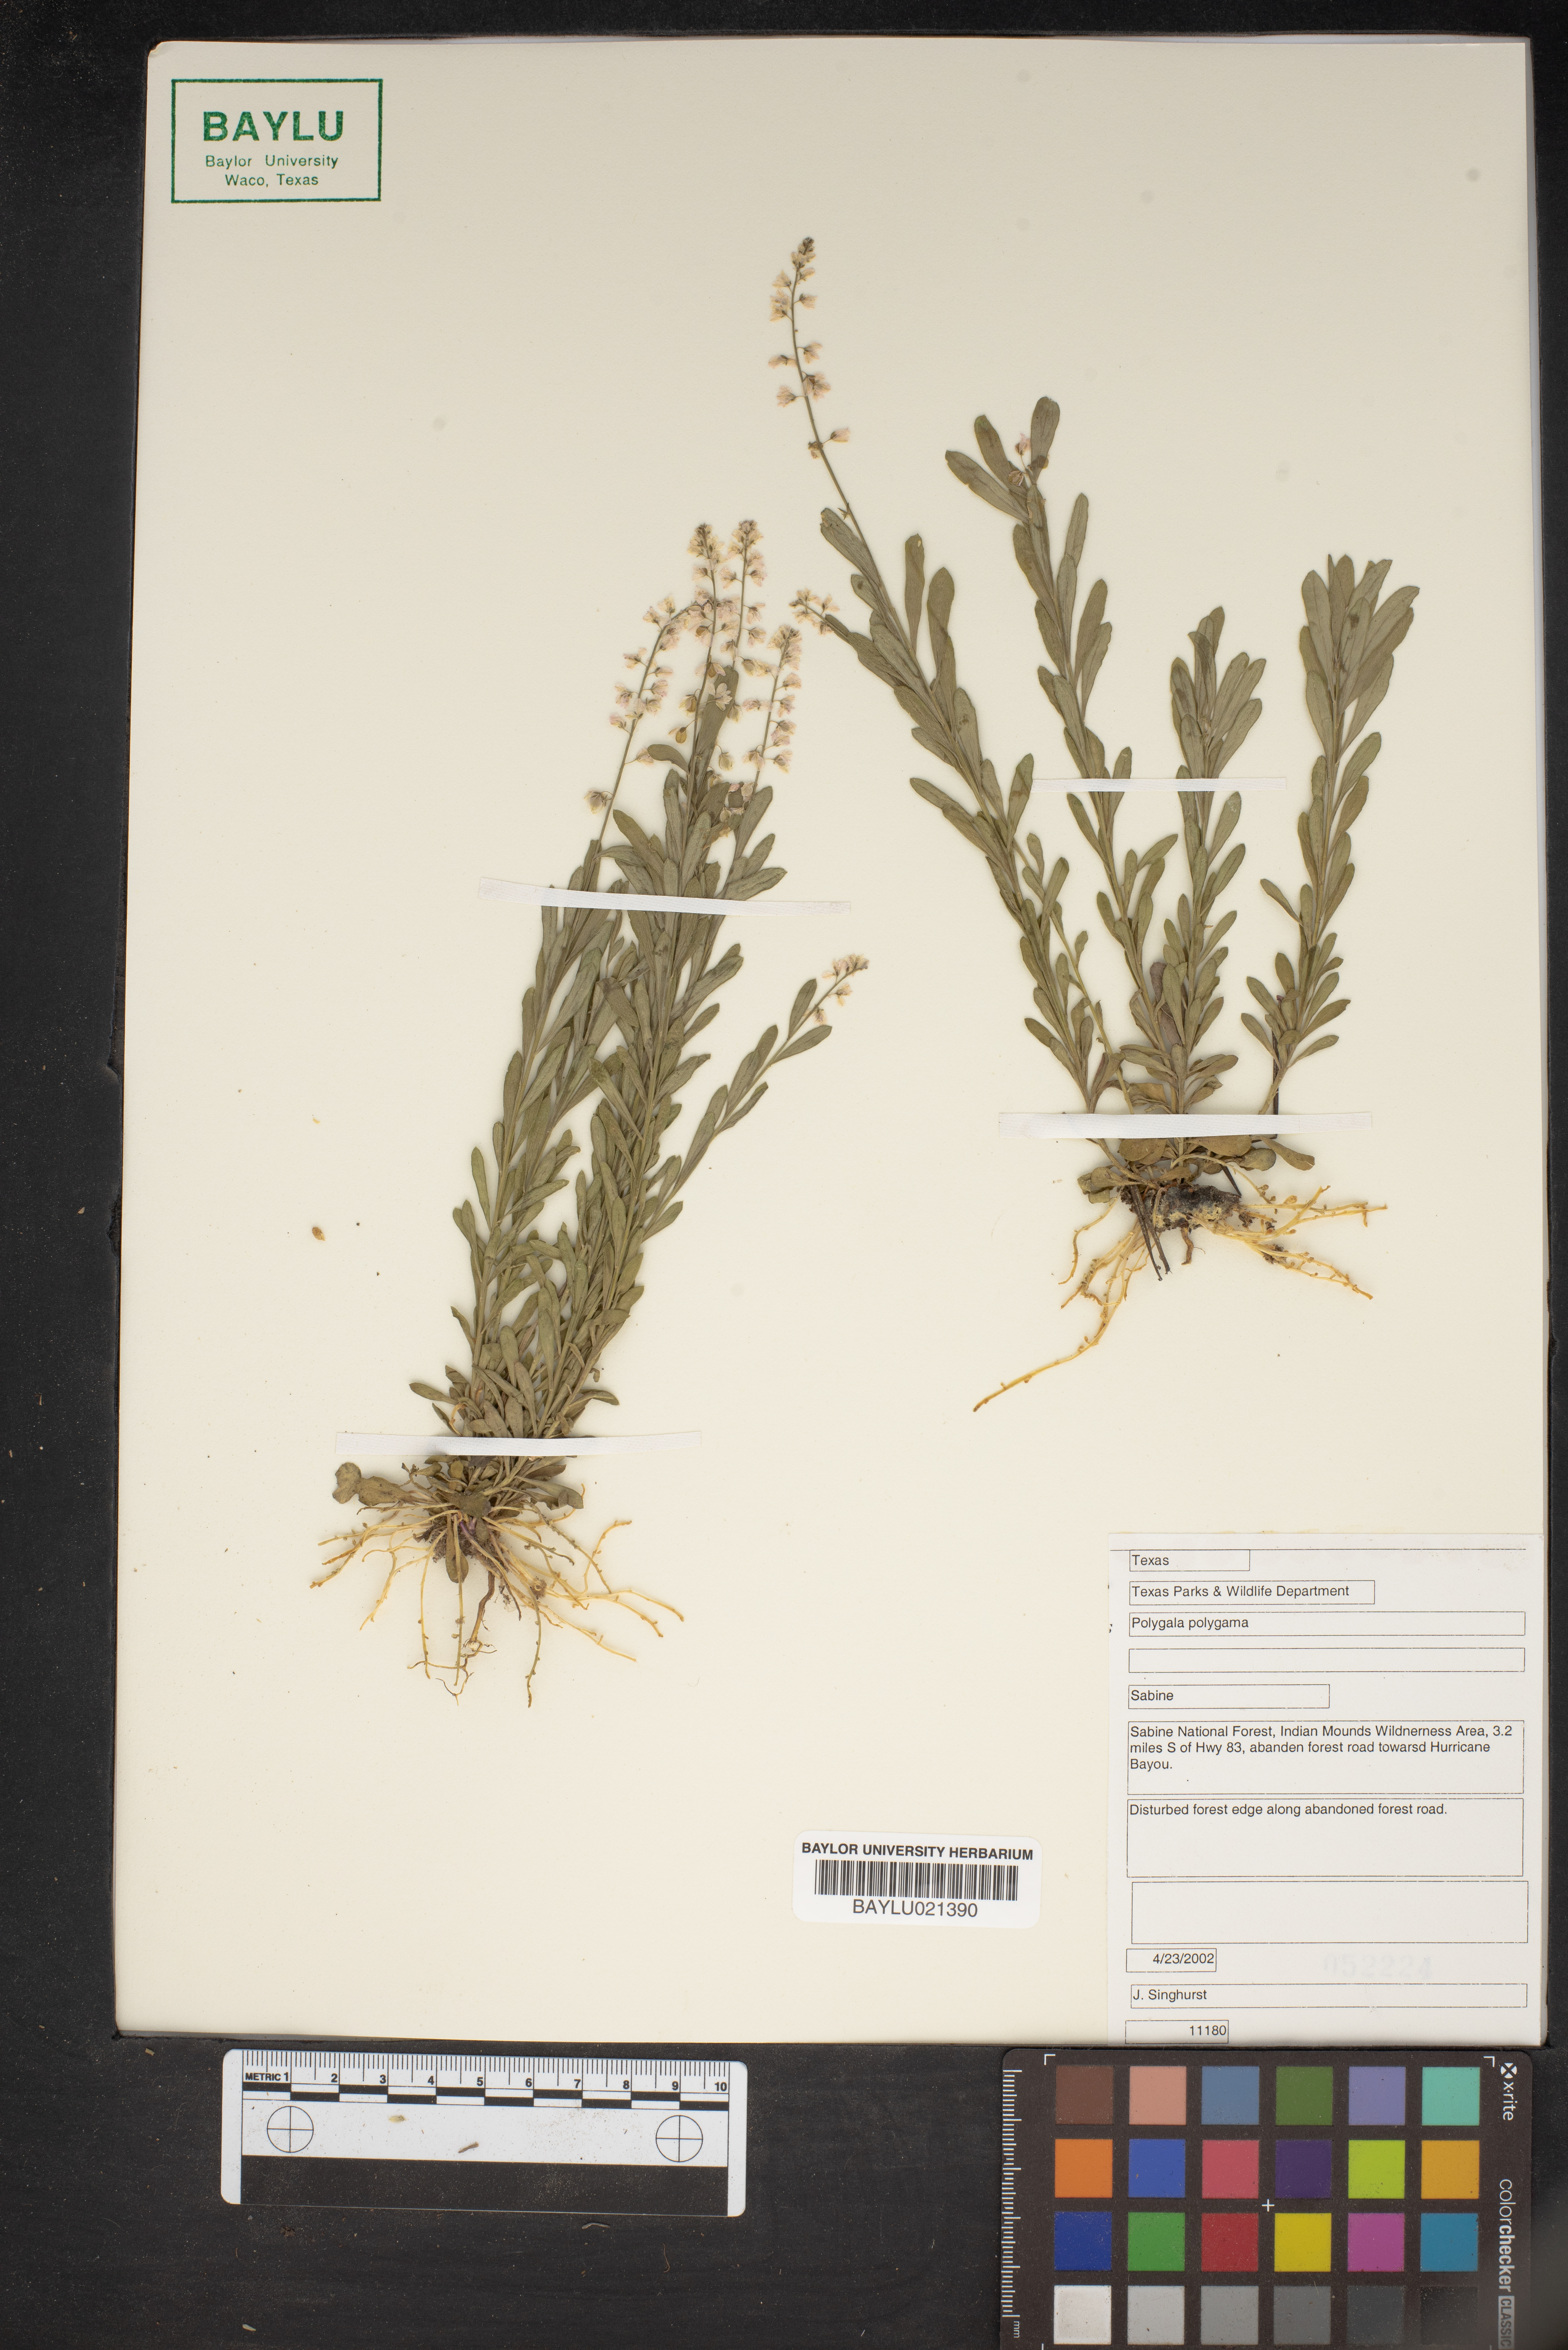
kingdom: Plantae
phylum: Tracheophyta
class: Magnoliopsida
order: Fabales
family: Polygalaceae
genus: Polygala
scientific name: Polygala polygama
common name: Bitter milkwort
